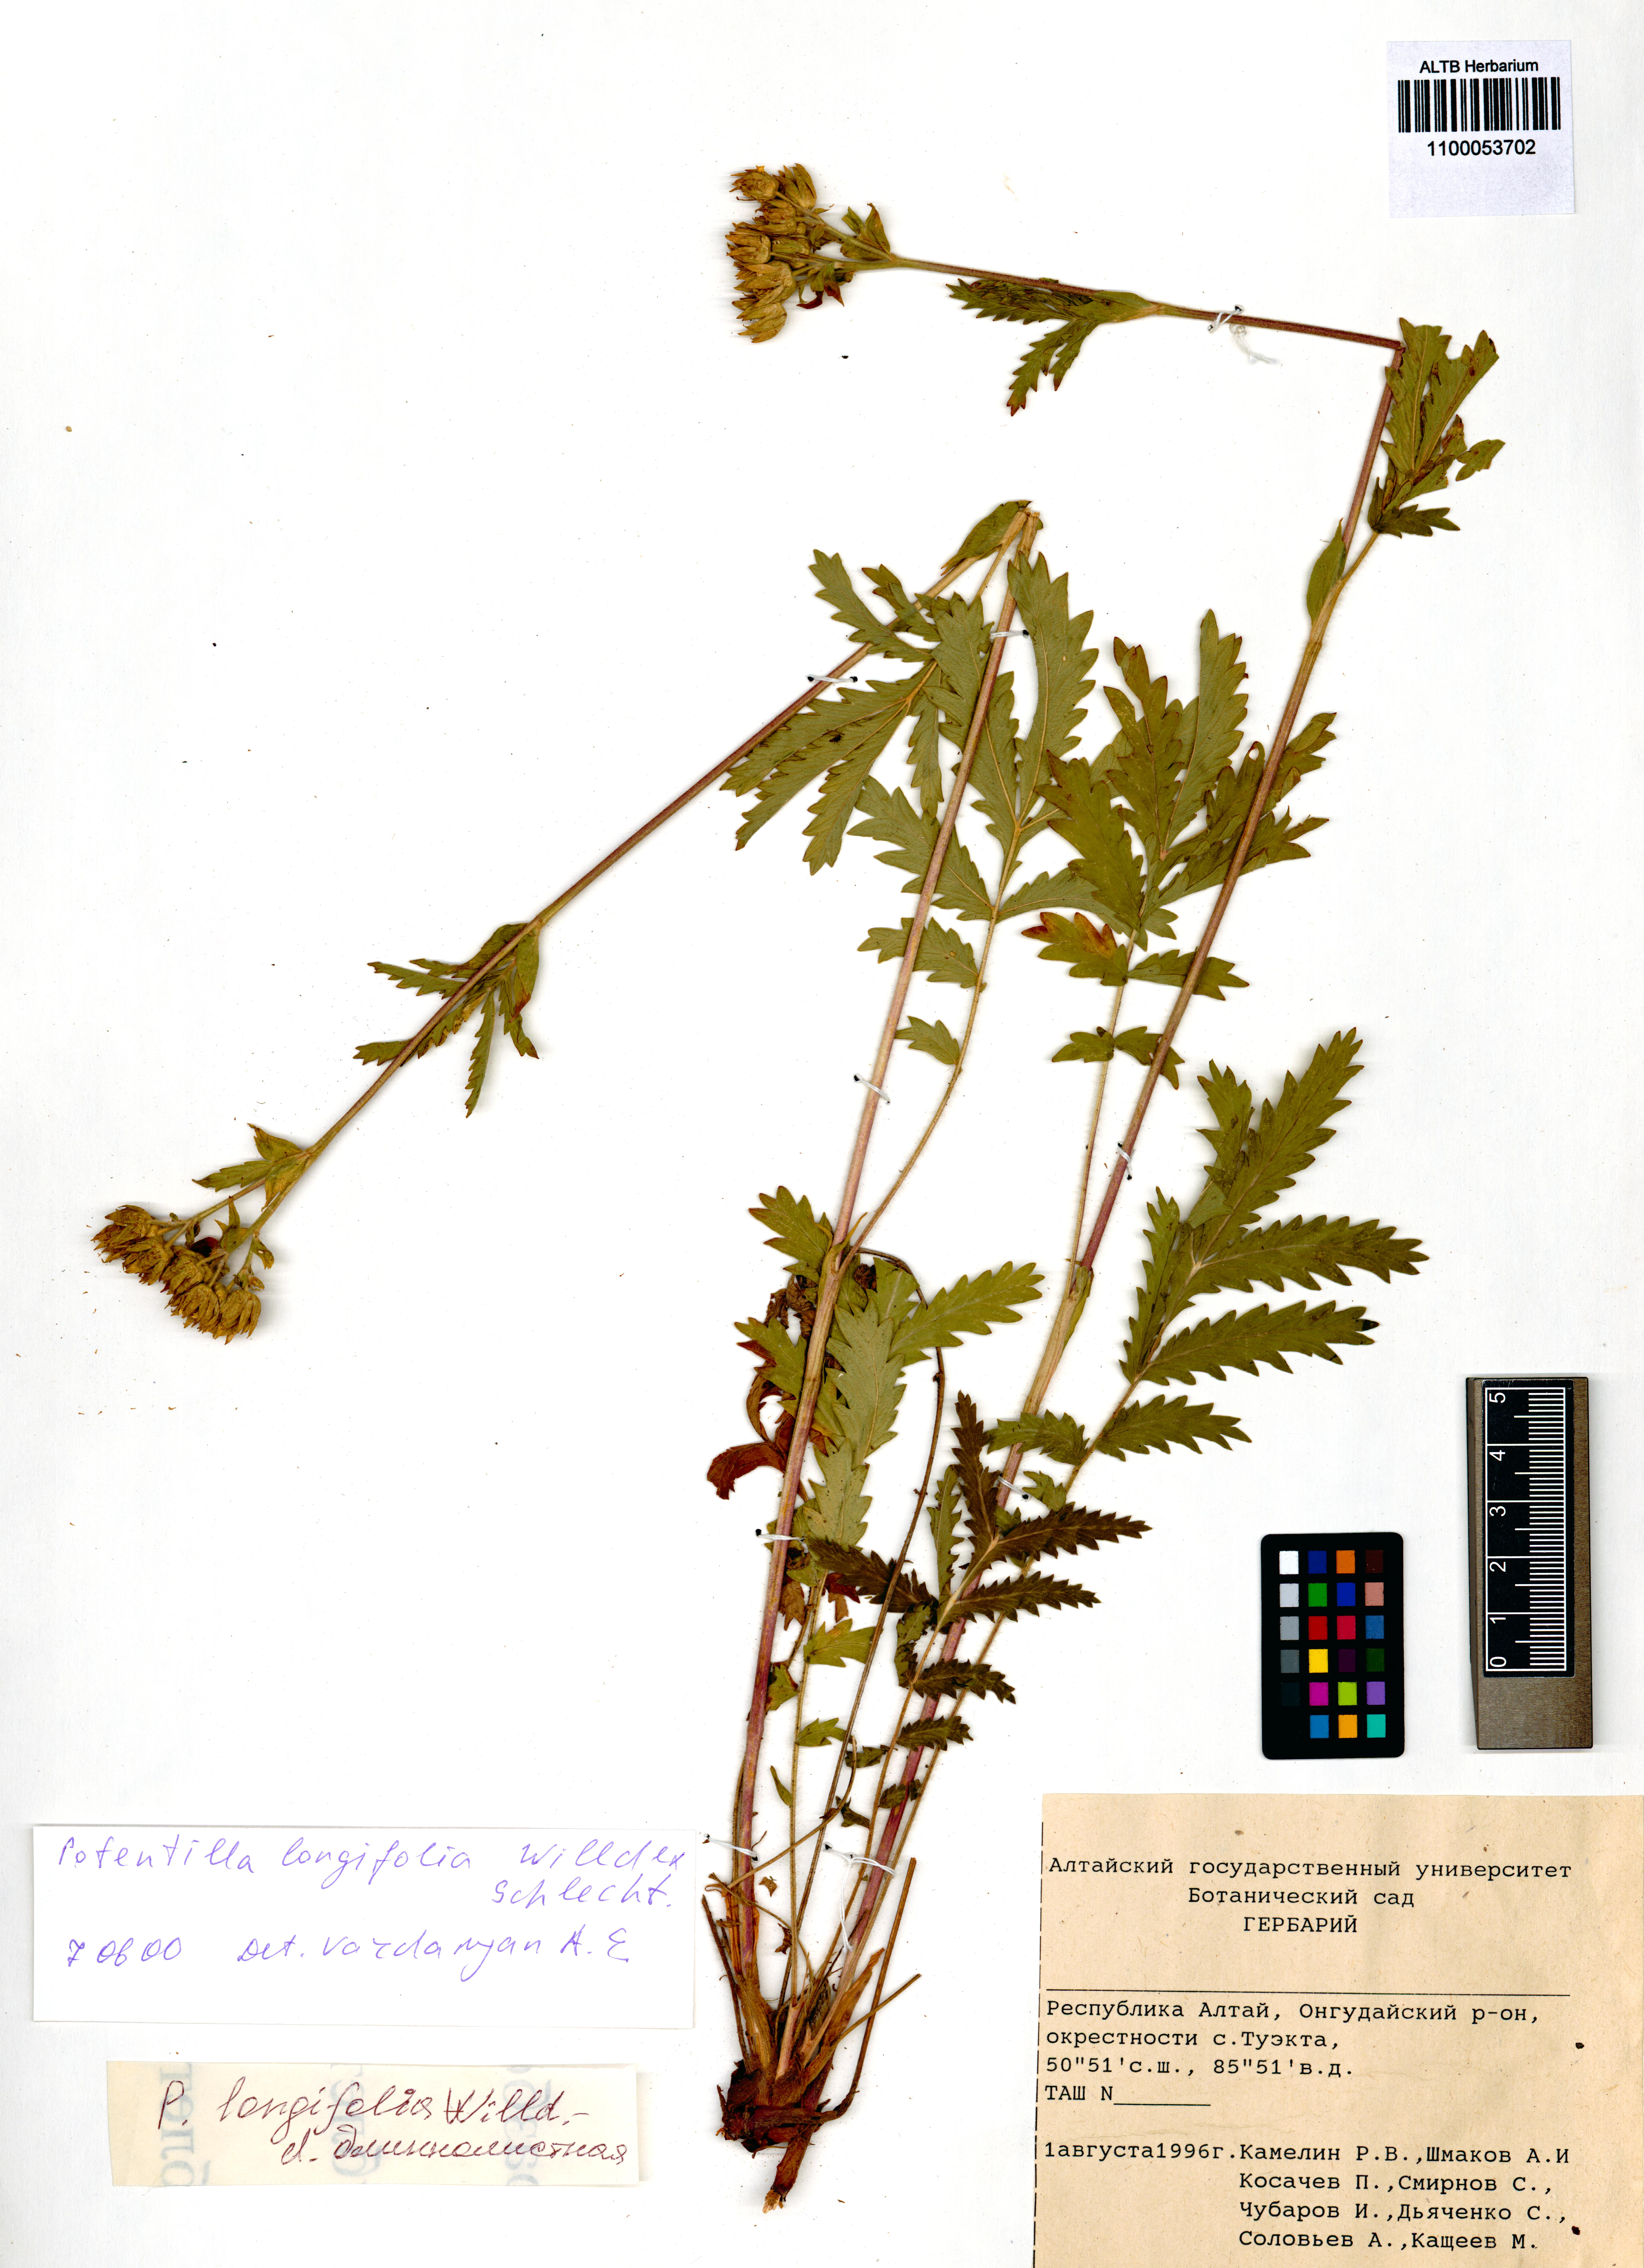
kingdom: Plantae
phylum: Tracheophyta
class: Magnoliopsida
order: Rosales
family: Rosaceae
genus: Potentilla
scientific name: Potentilla longifolia
